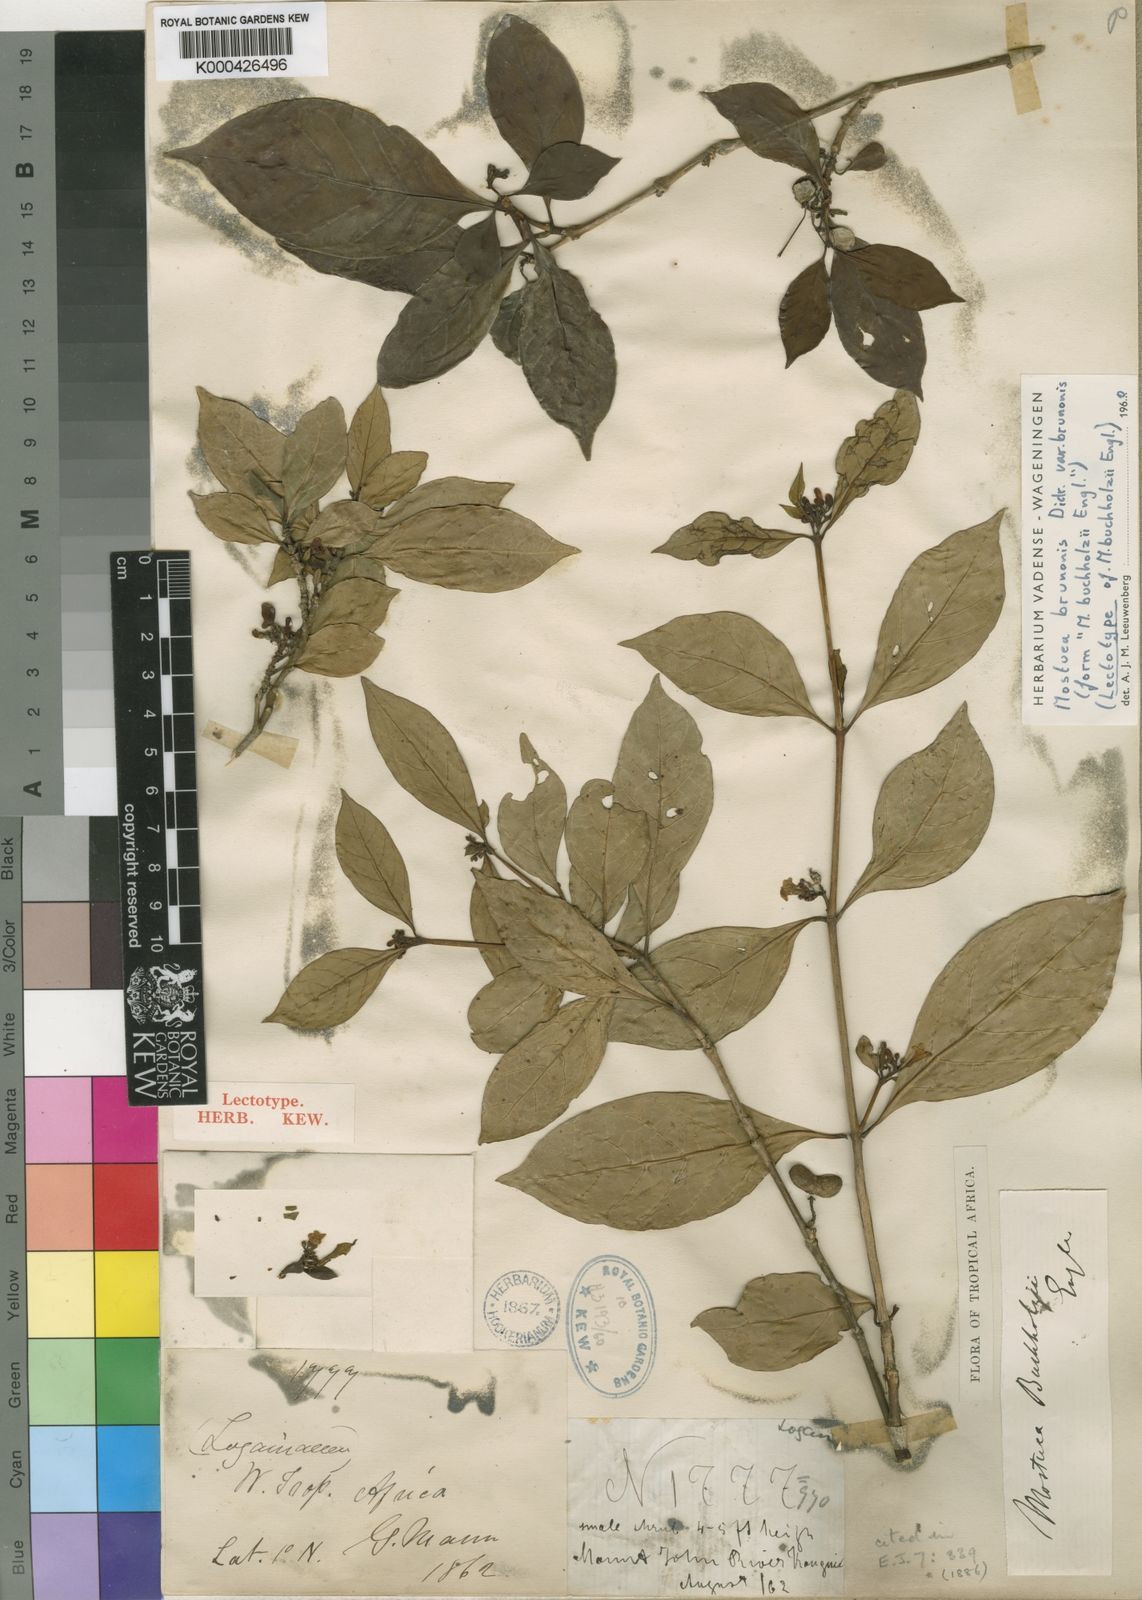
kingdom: Plantae
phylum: Tracheophyta
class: Magnoliopsida
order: Gentianales
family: Gelsemiaceae
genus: Mostuea
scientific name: Mostuea brunonis
